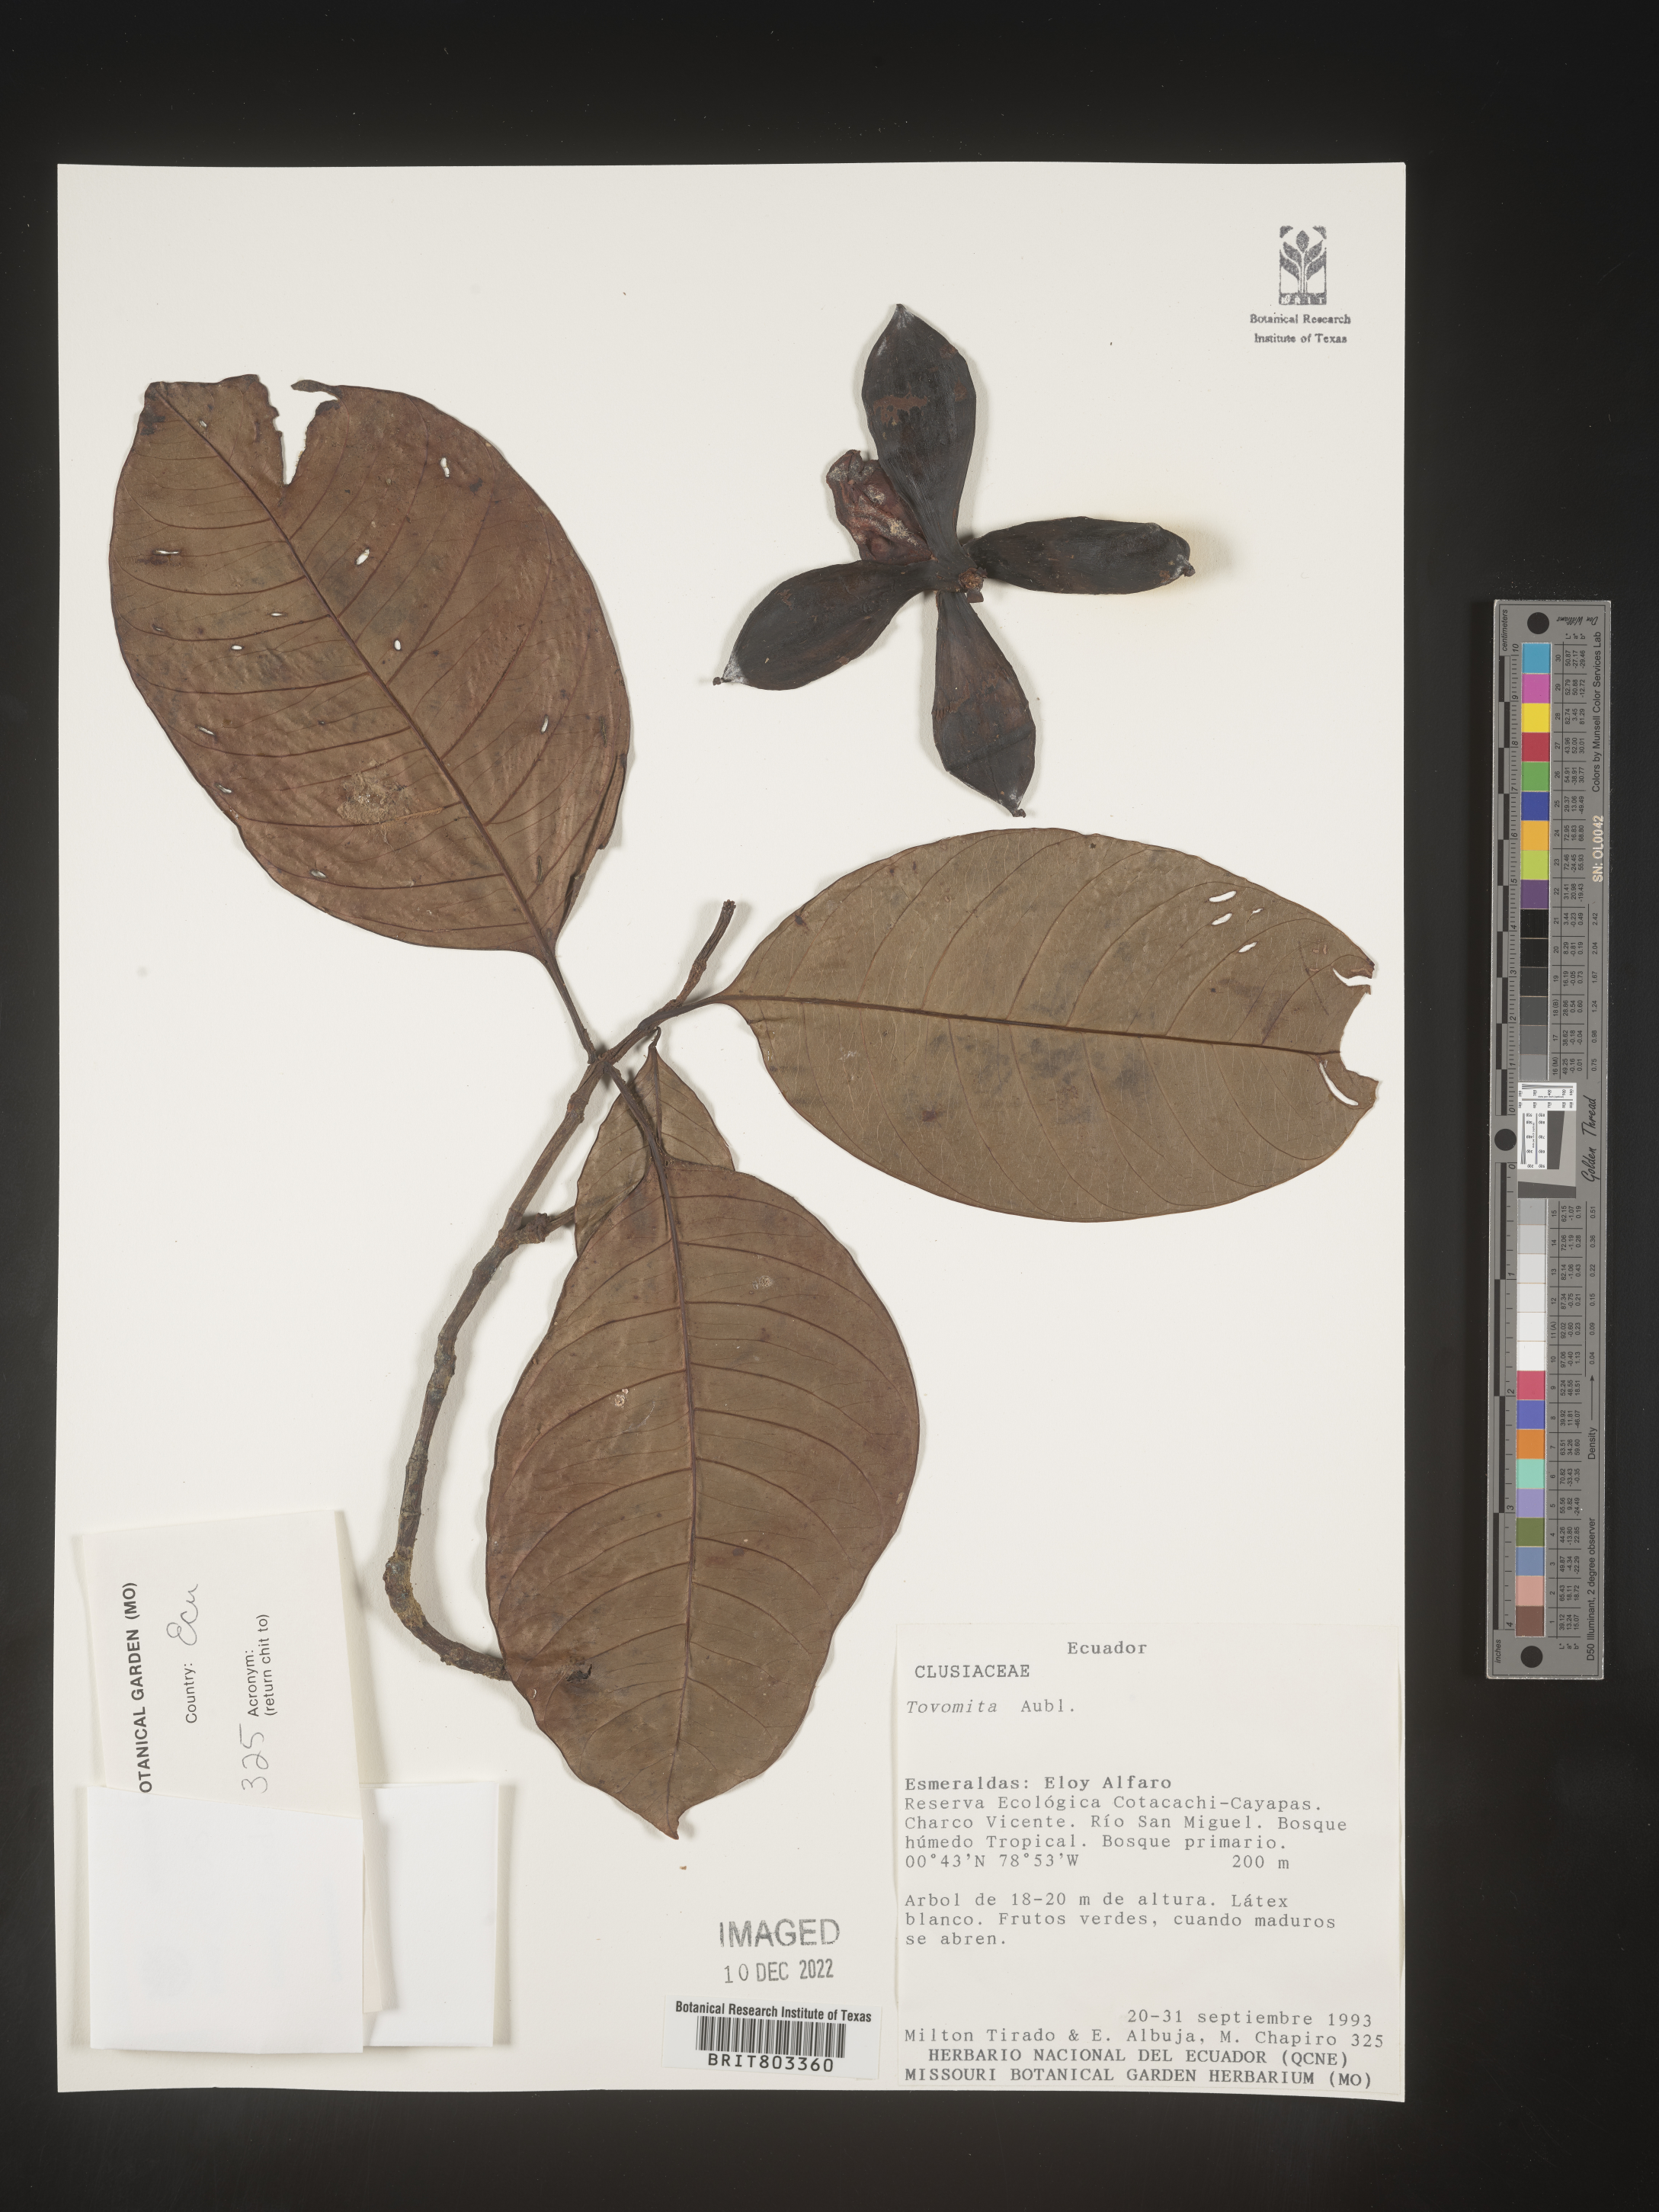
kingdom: Plantae
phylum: Tracheophyta
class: Magnoliopsida
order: Malpighiales
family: Clusiaceae
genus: Tovomita
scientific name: Tovomita
